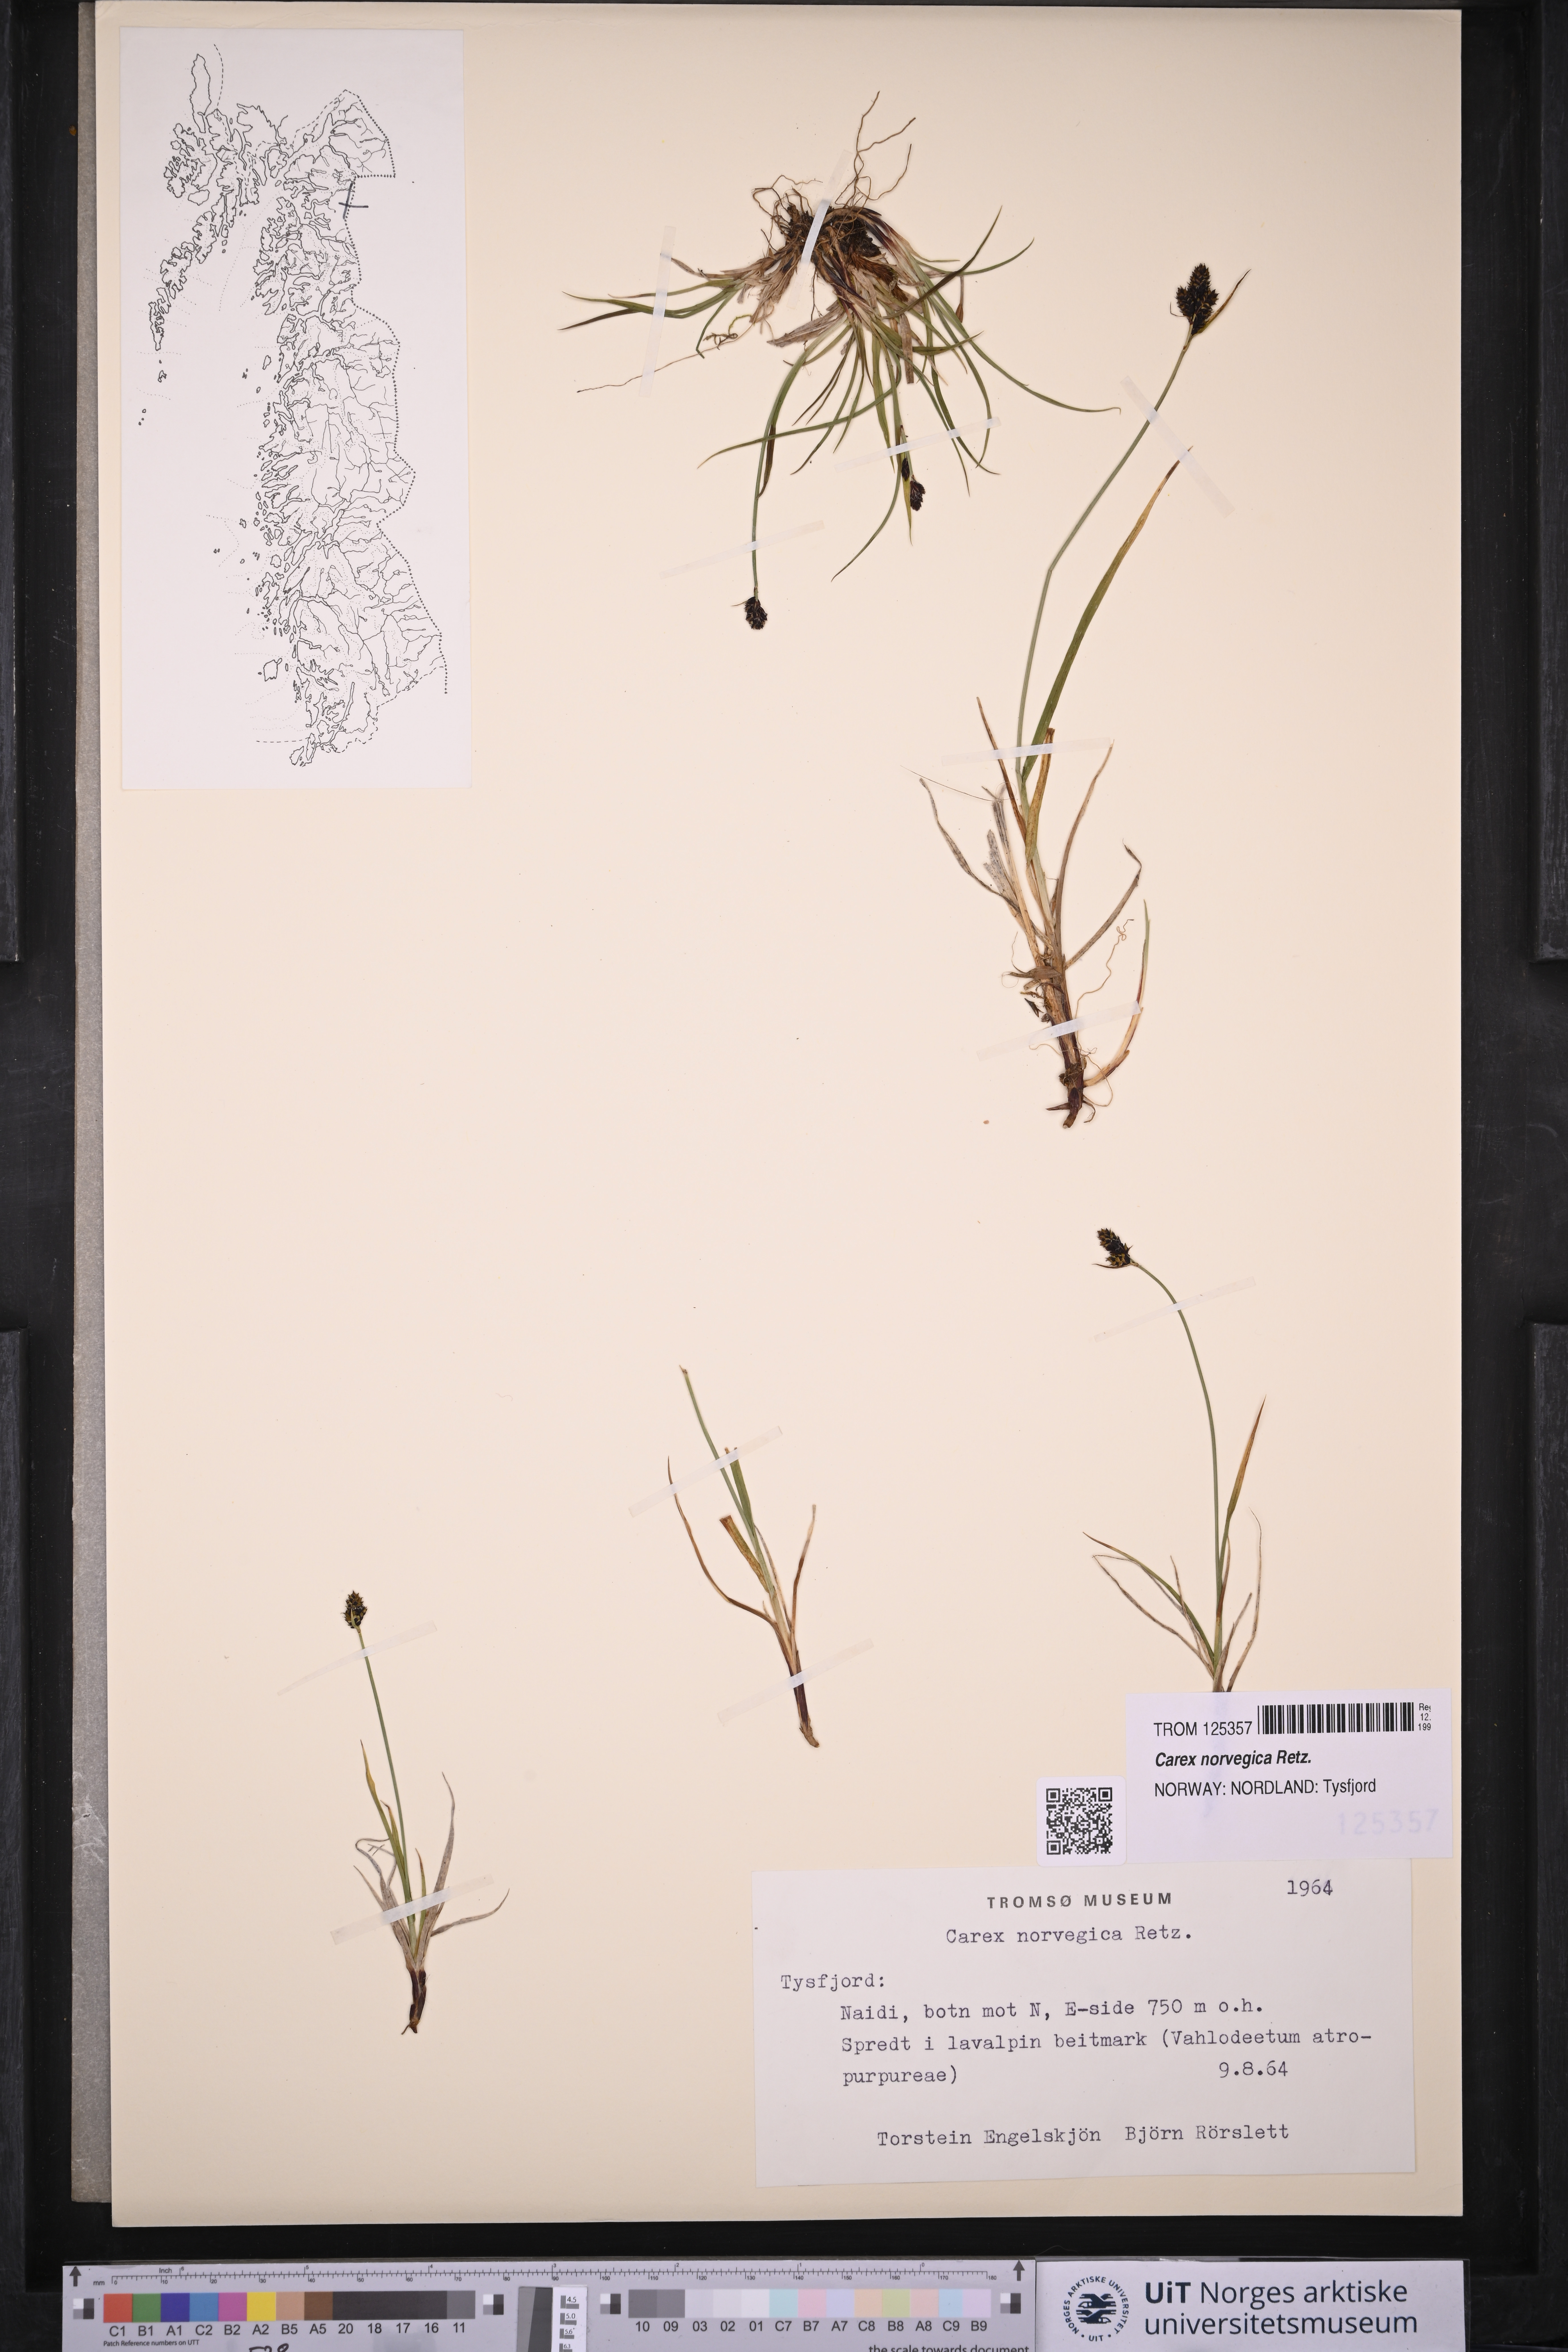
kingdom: Plantae
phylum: Tracheophyta
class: Liliopsida
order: Poales
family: Cyperaceae
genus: Carex
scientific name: Carex norvegica
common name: Close-headed alpine-sedge
